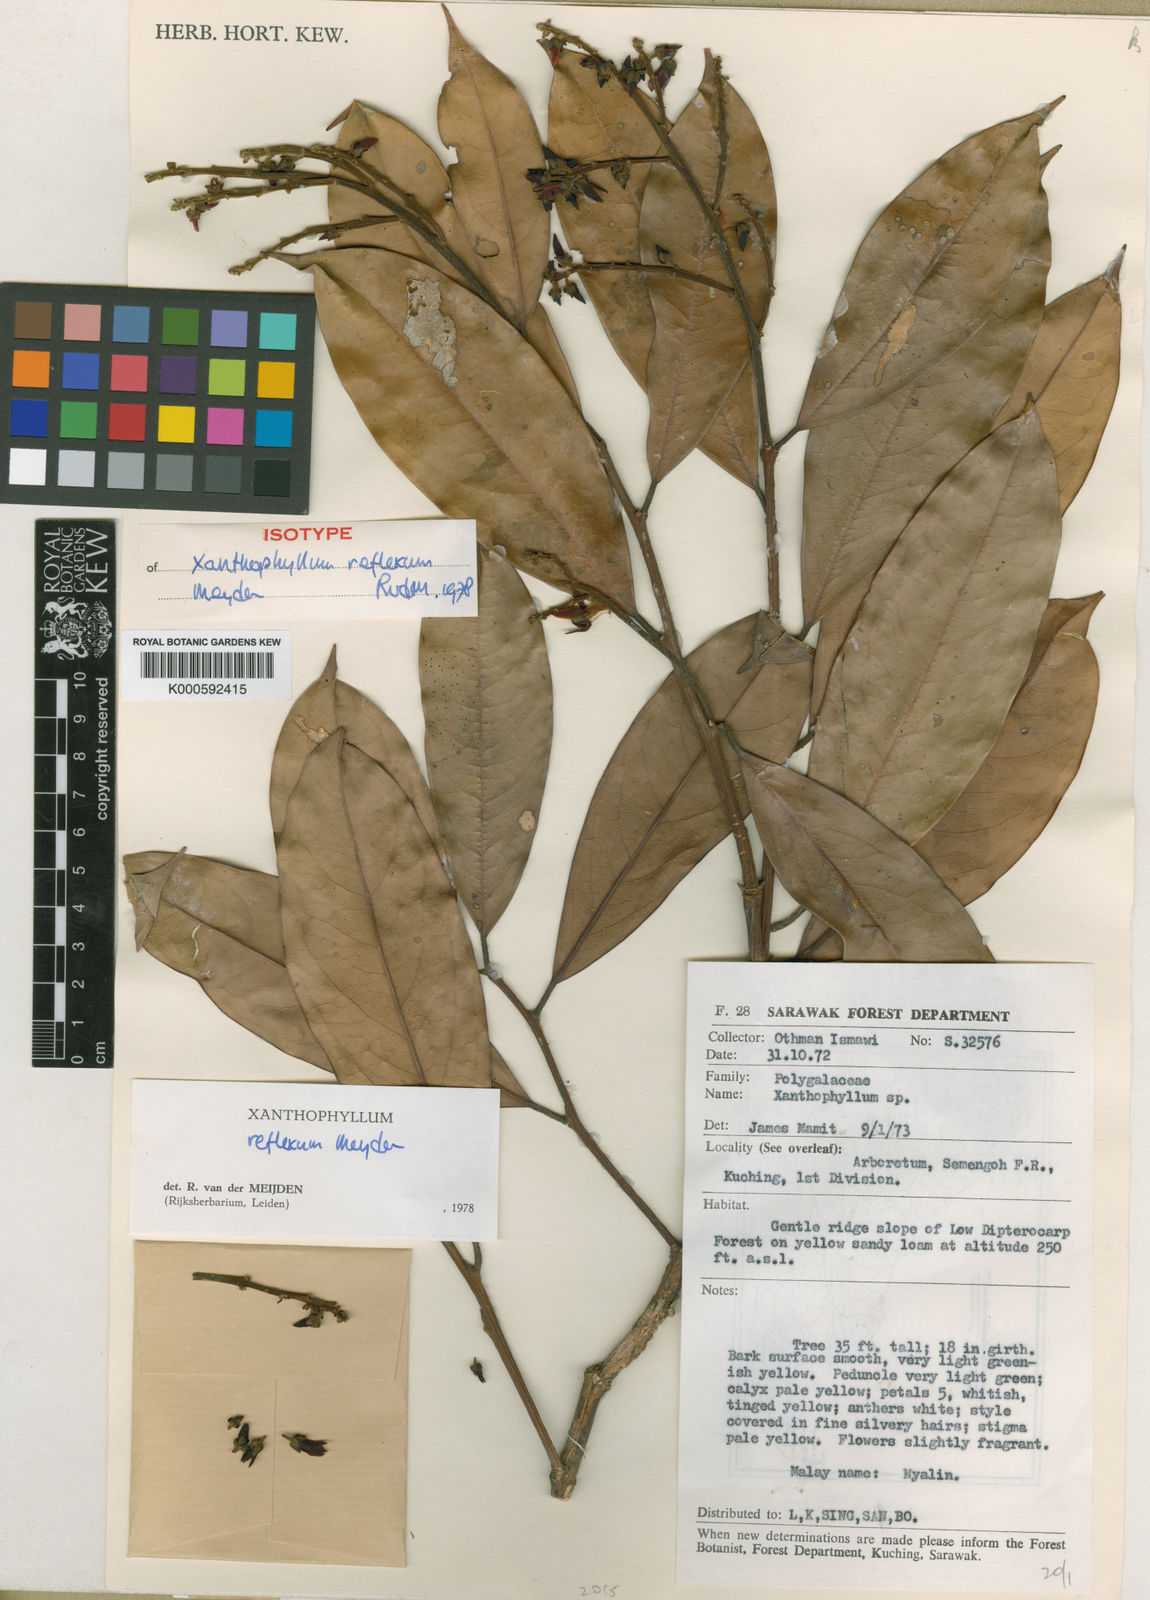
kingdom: Plantae
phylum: Tracheophyta
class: Magnoliopsida
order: Fabales
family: Polygalaceae
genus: Xanthophyllum
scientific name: Xanthophyllum reflexum
